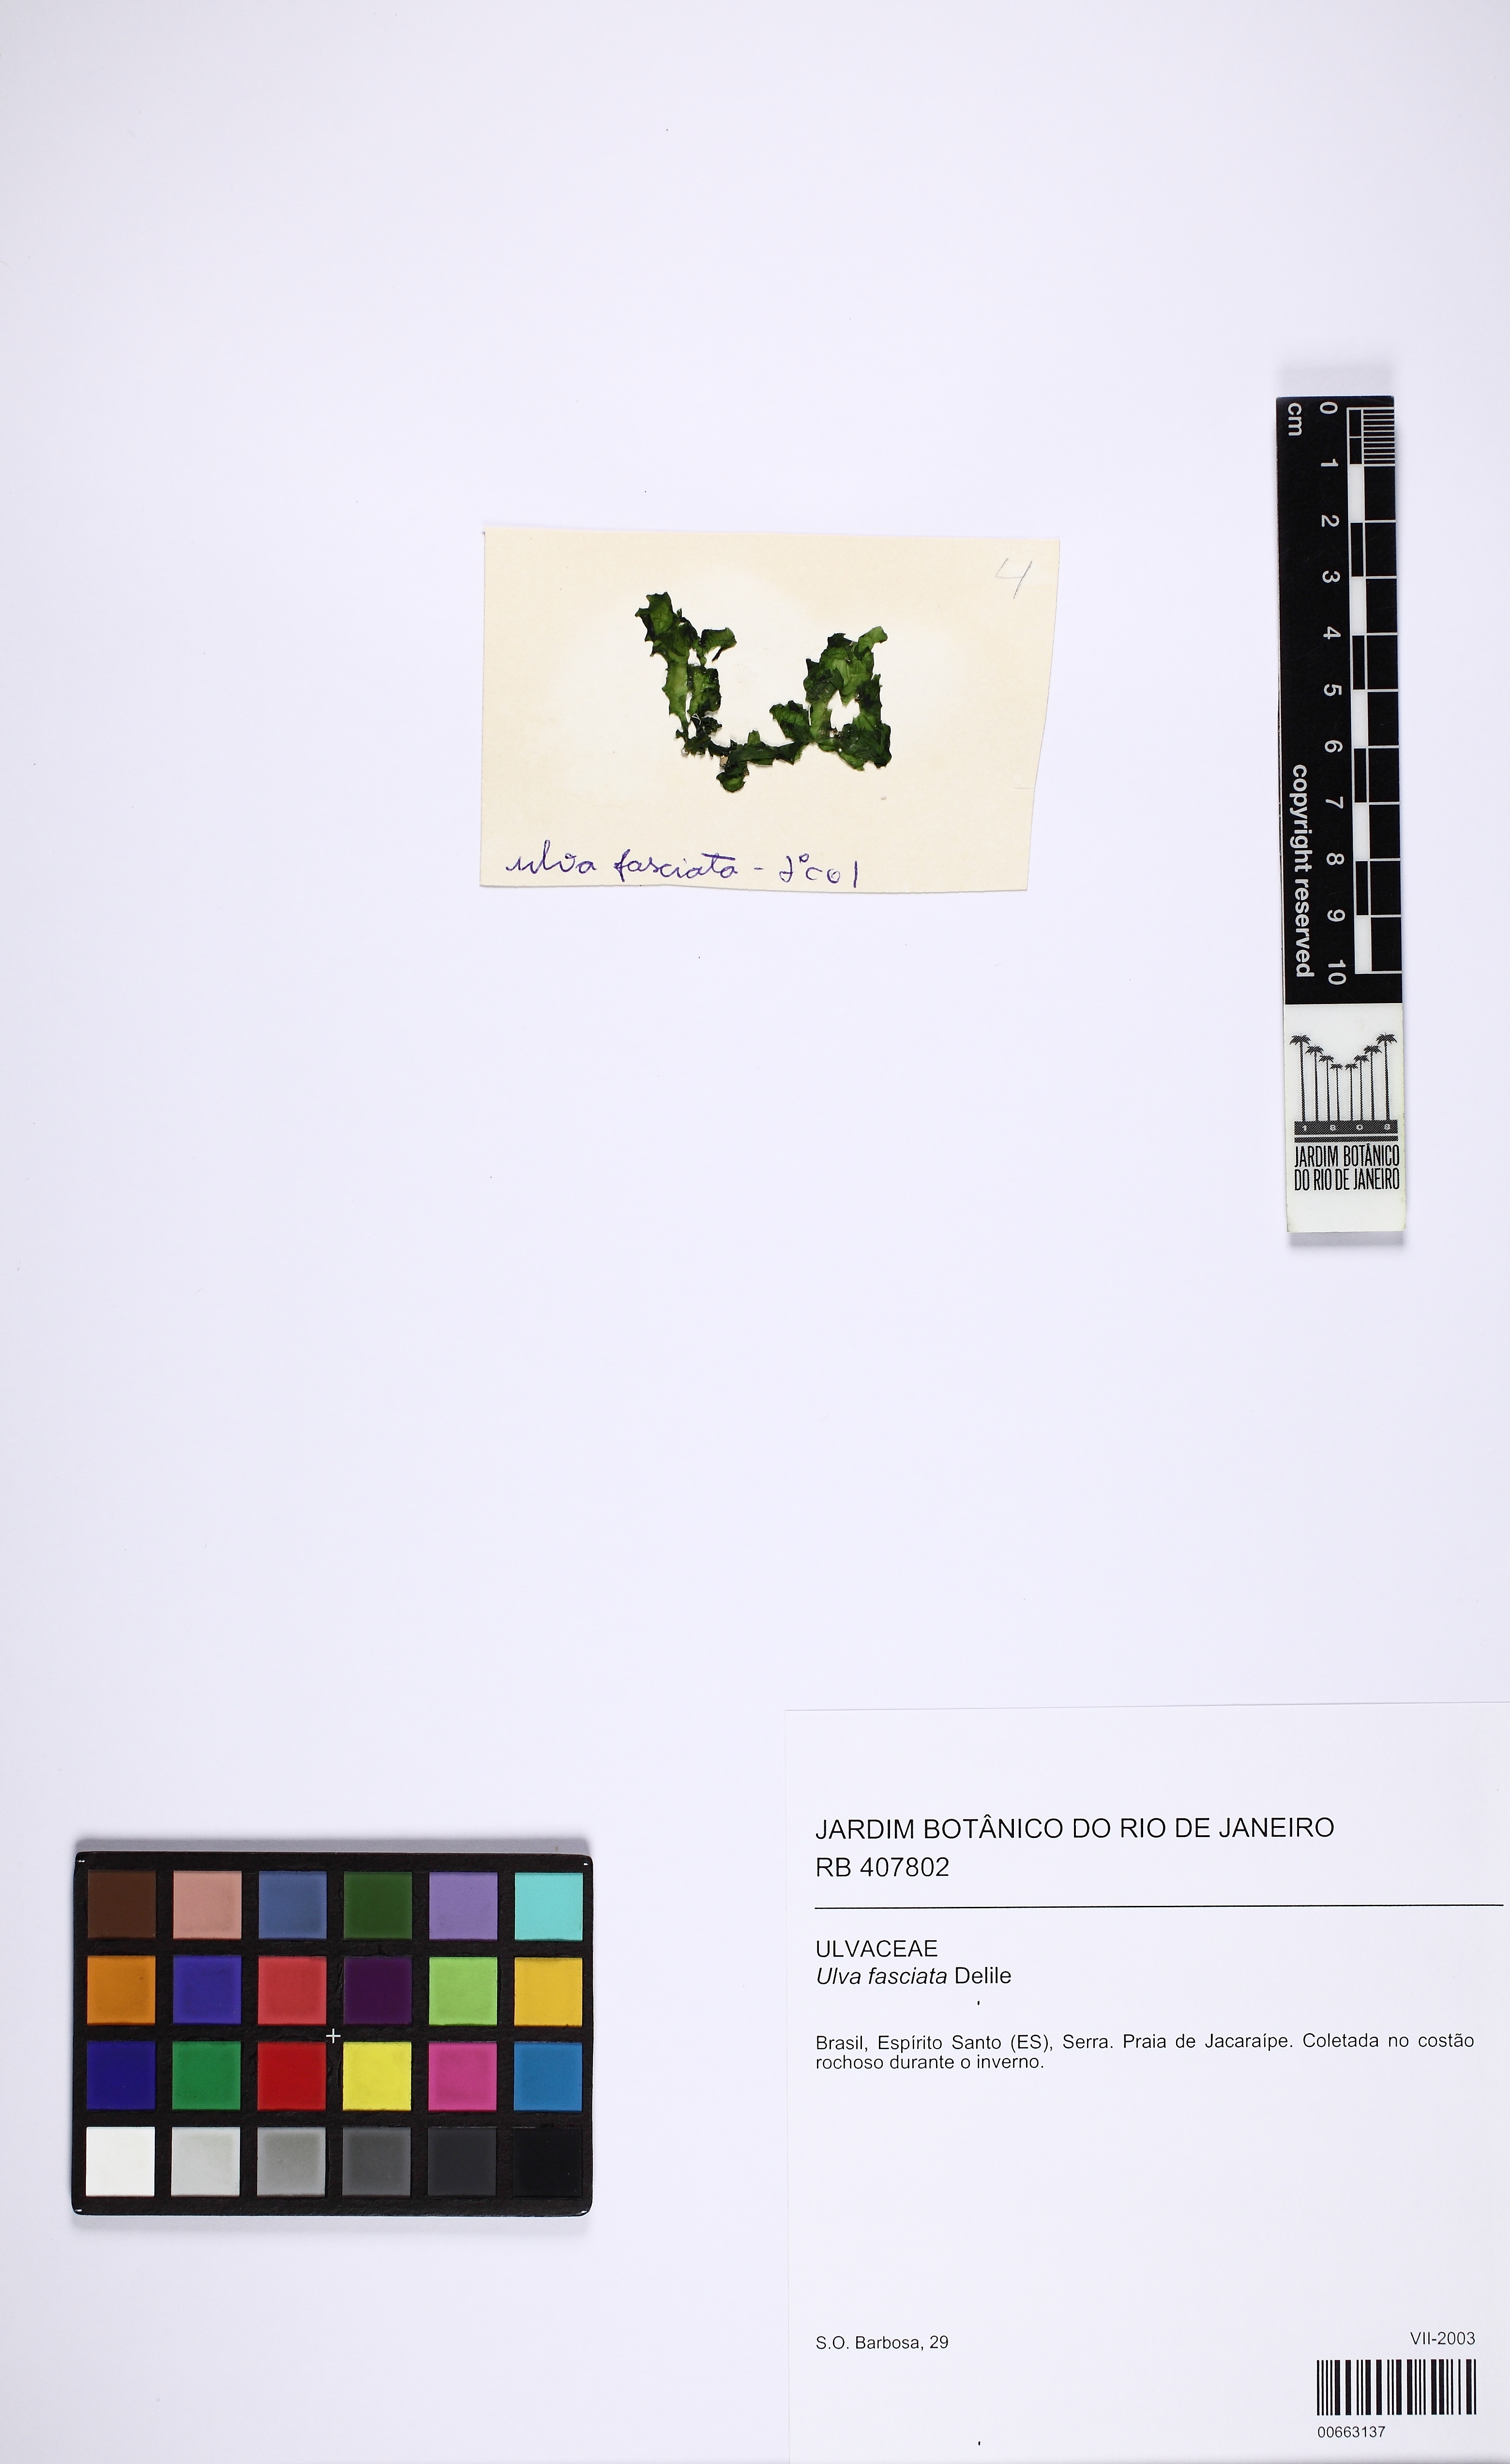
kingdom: Plantae
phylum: Chlorophyta
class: Ulvophyceae
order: Ulvales
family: Ulvaceae
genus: Ulva
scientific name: Ulva lactuca
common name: Sea lettuce
